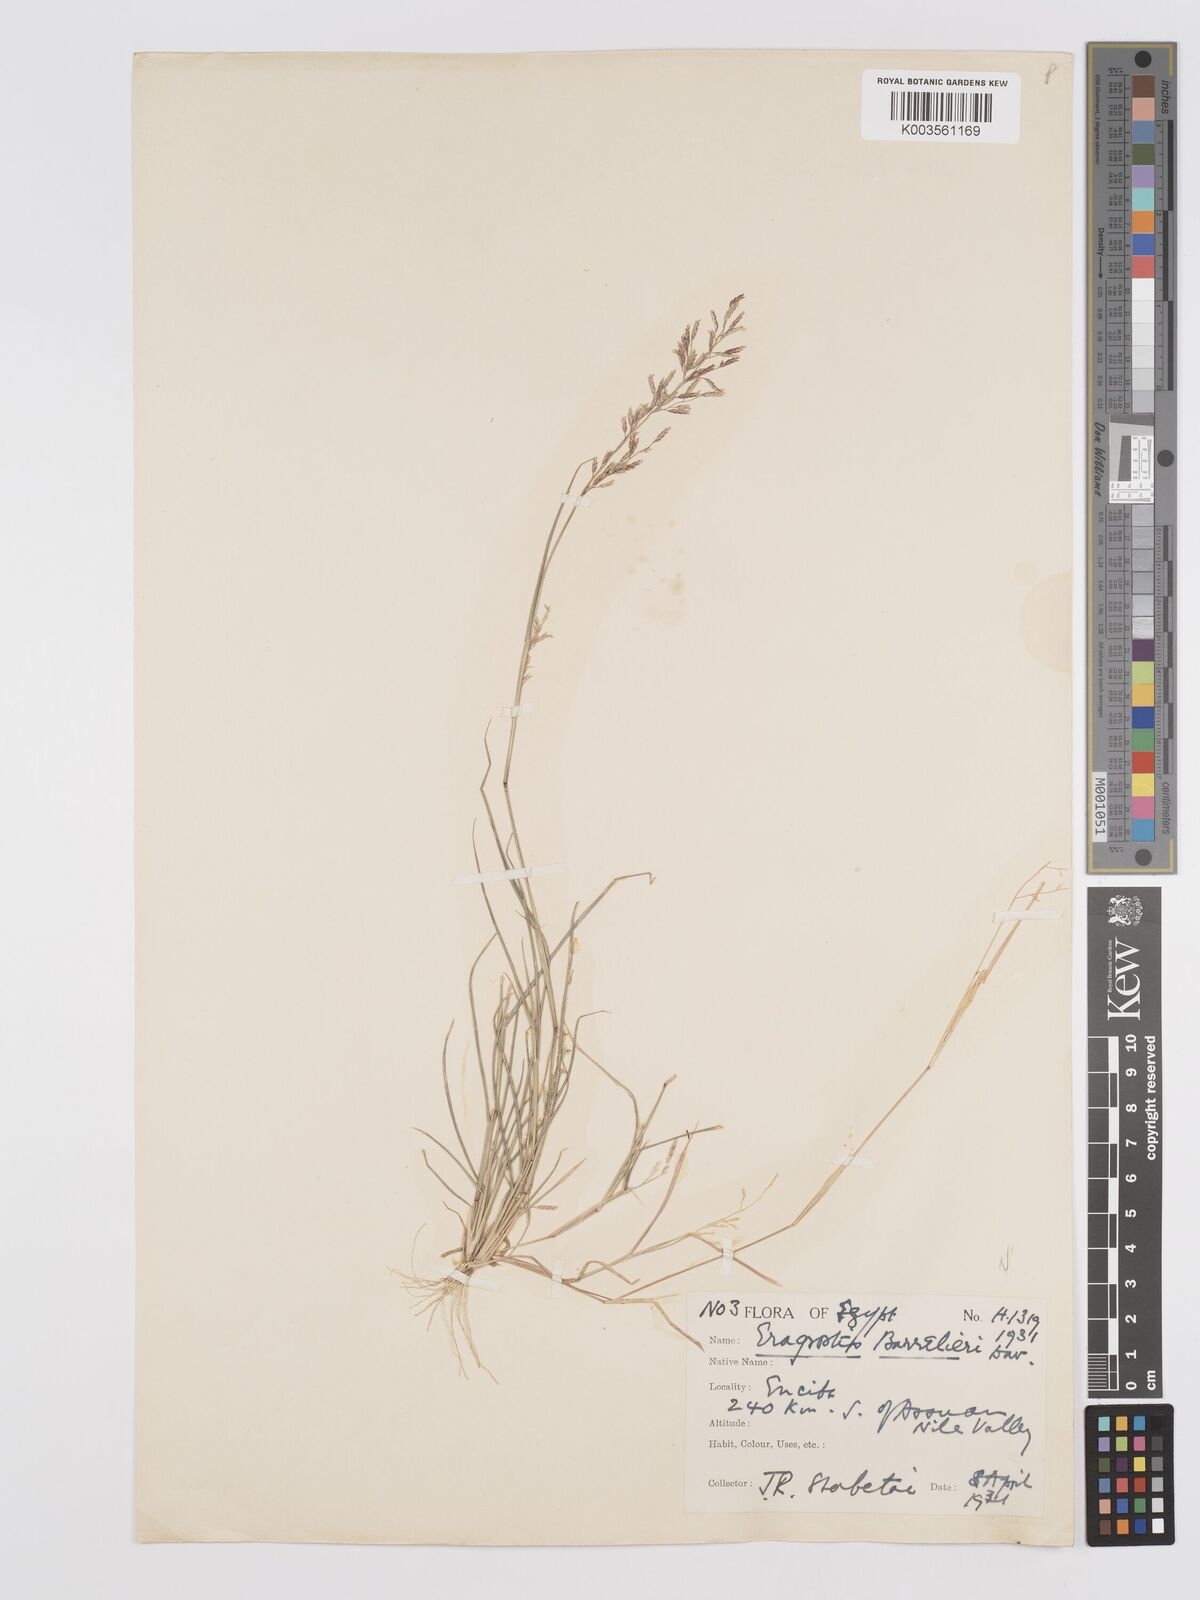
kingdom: Plantae
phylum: Tracheophyta
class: Liliopsida
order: Poales
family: Poaceae
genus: Eragrostis
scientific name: Eragrostis barrelieri
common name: Mediterranean lovegrass
